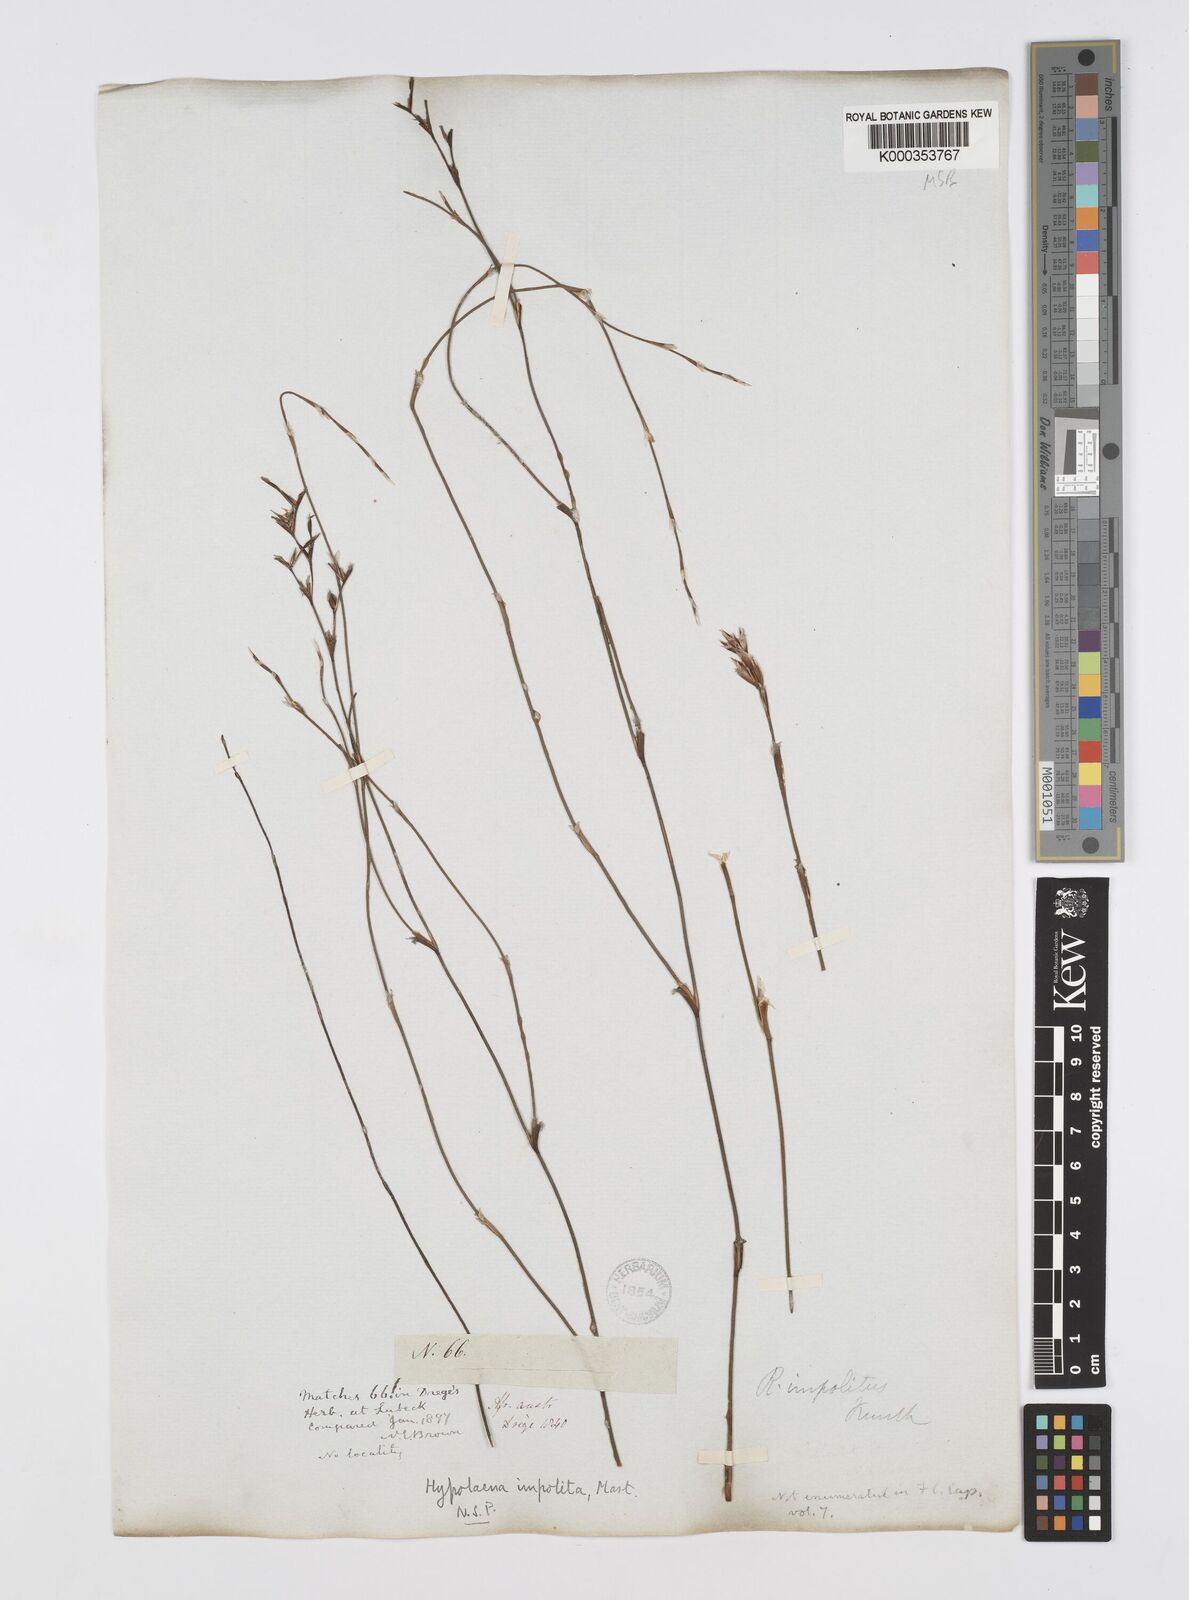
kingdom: Plantae
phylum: Tracheophyta
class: Liliopsida
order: Poales
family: Restionaceae
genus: Restio
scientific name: Restio impolitus
